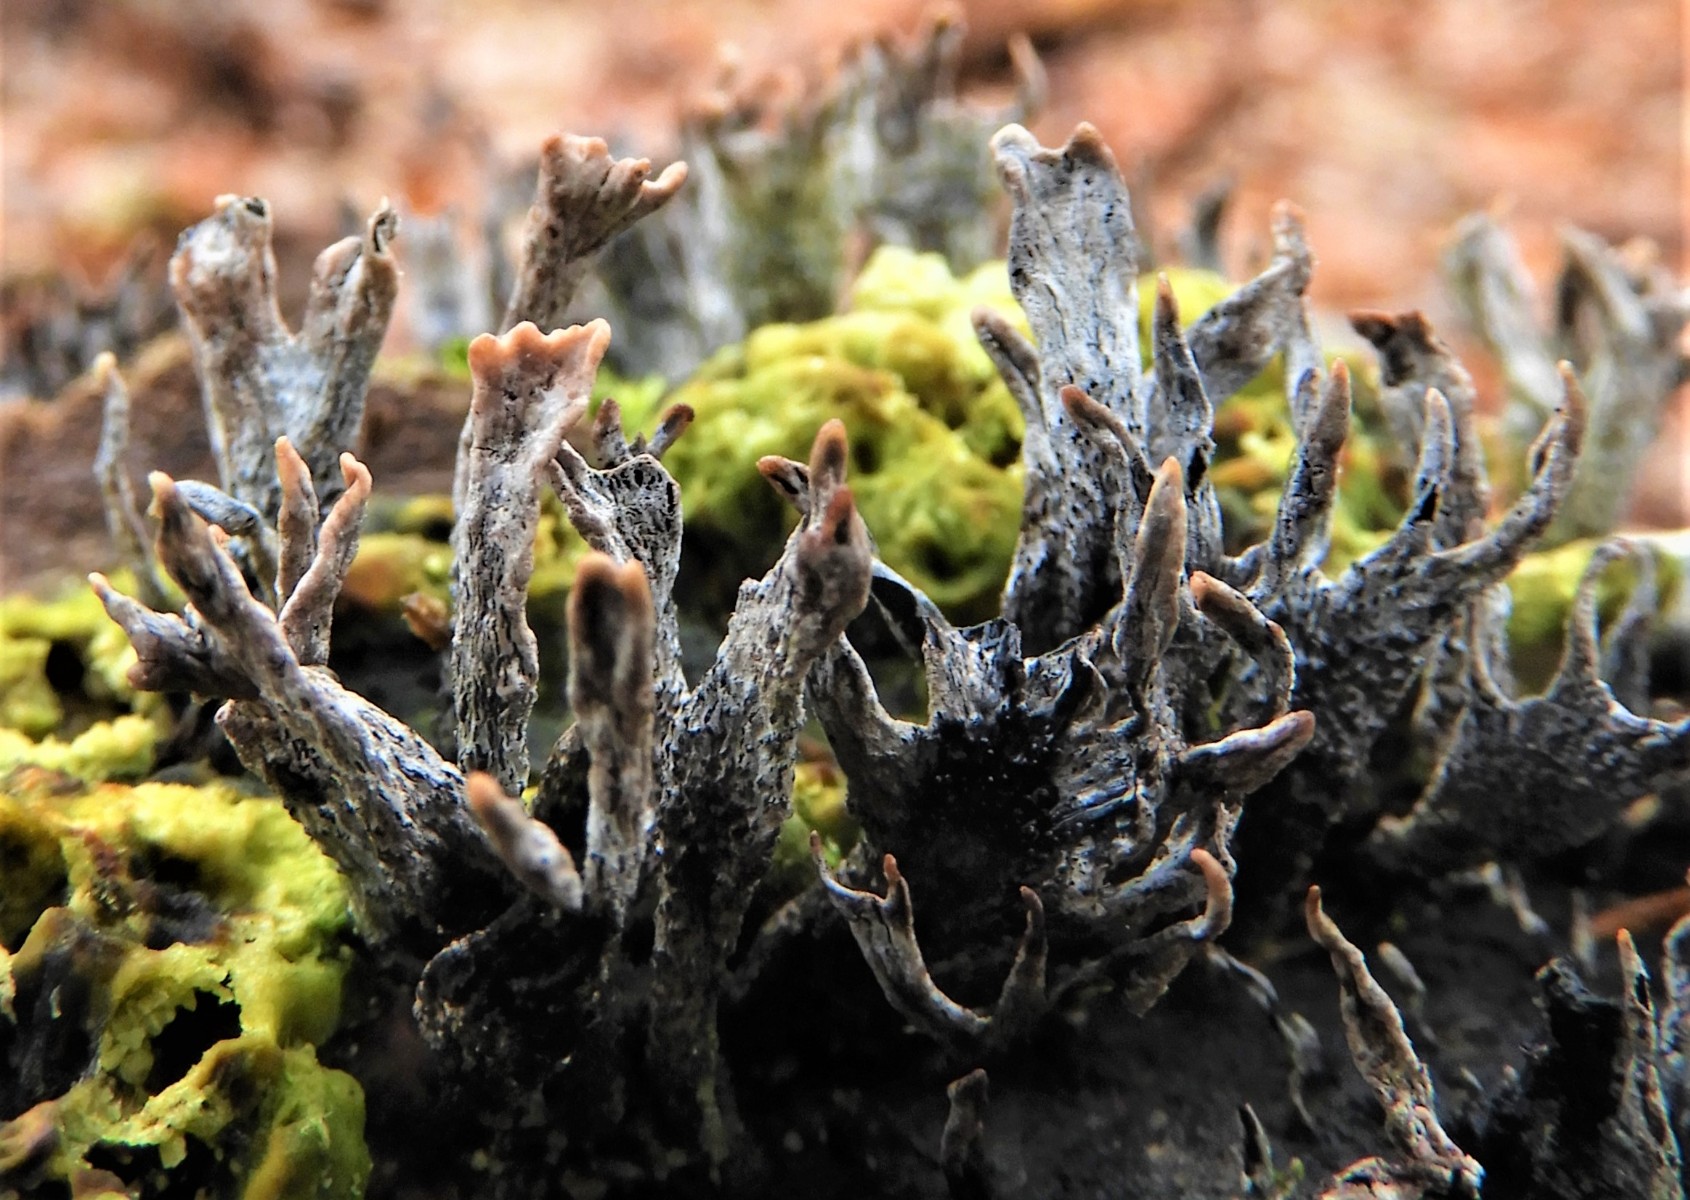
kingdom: Fungi
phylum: Ascomycota
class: Sordariomycetes
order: Xylariales
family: Xylariaceae
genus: Xylaria
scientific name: Xylaria hypoxylon
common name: grenet stødsvamp
